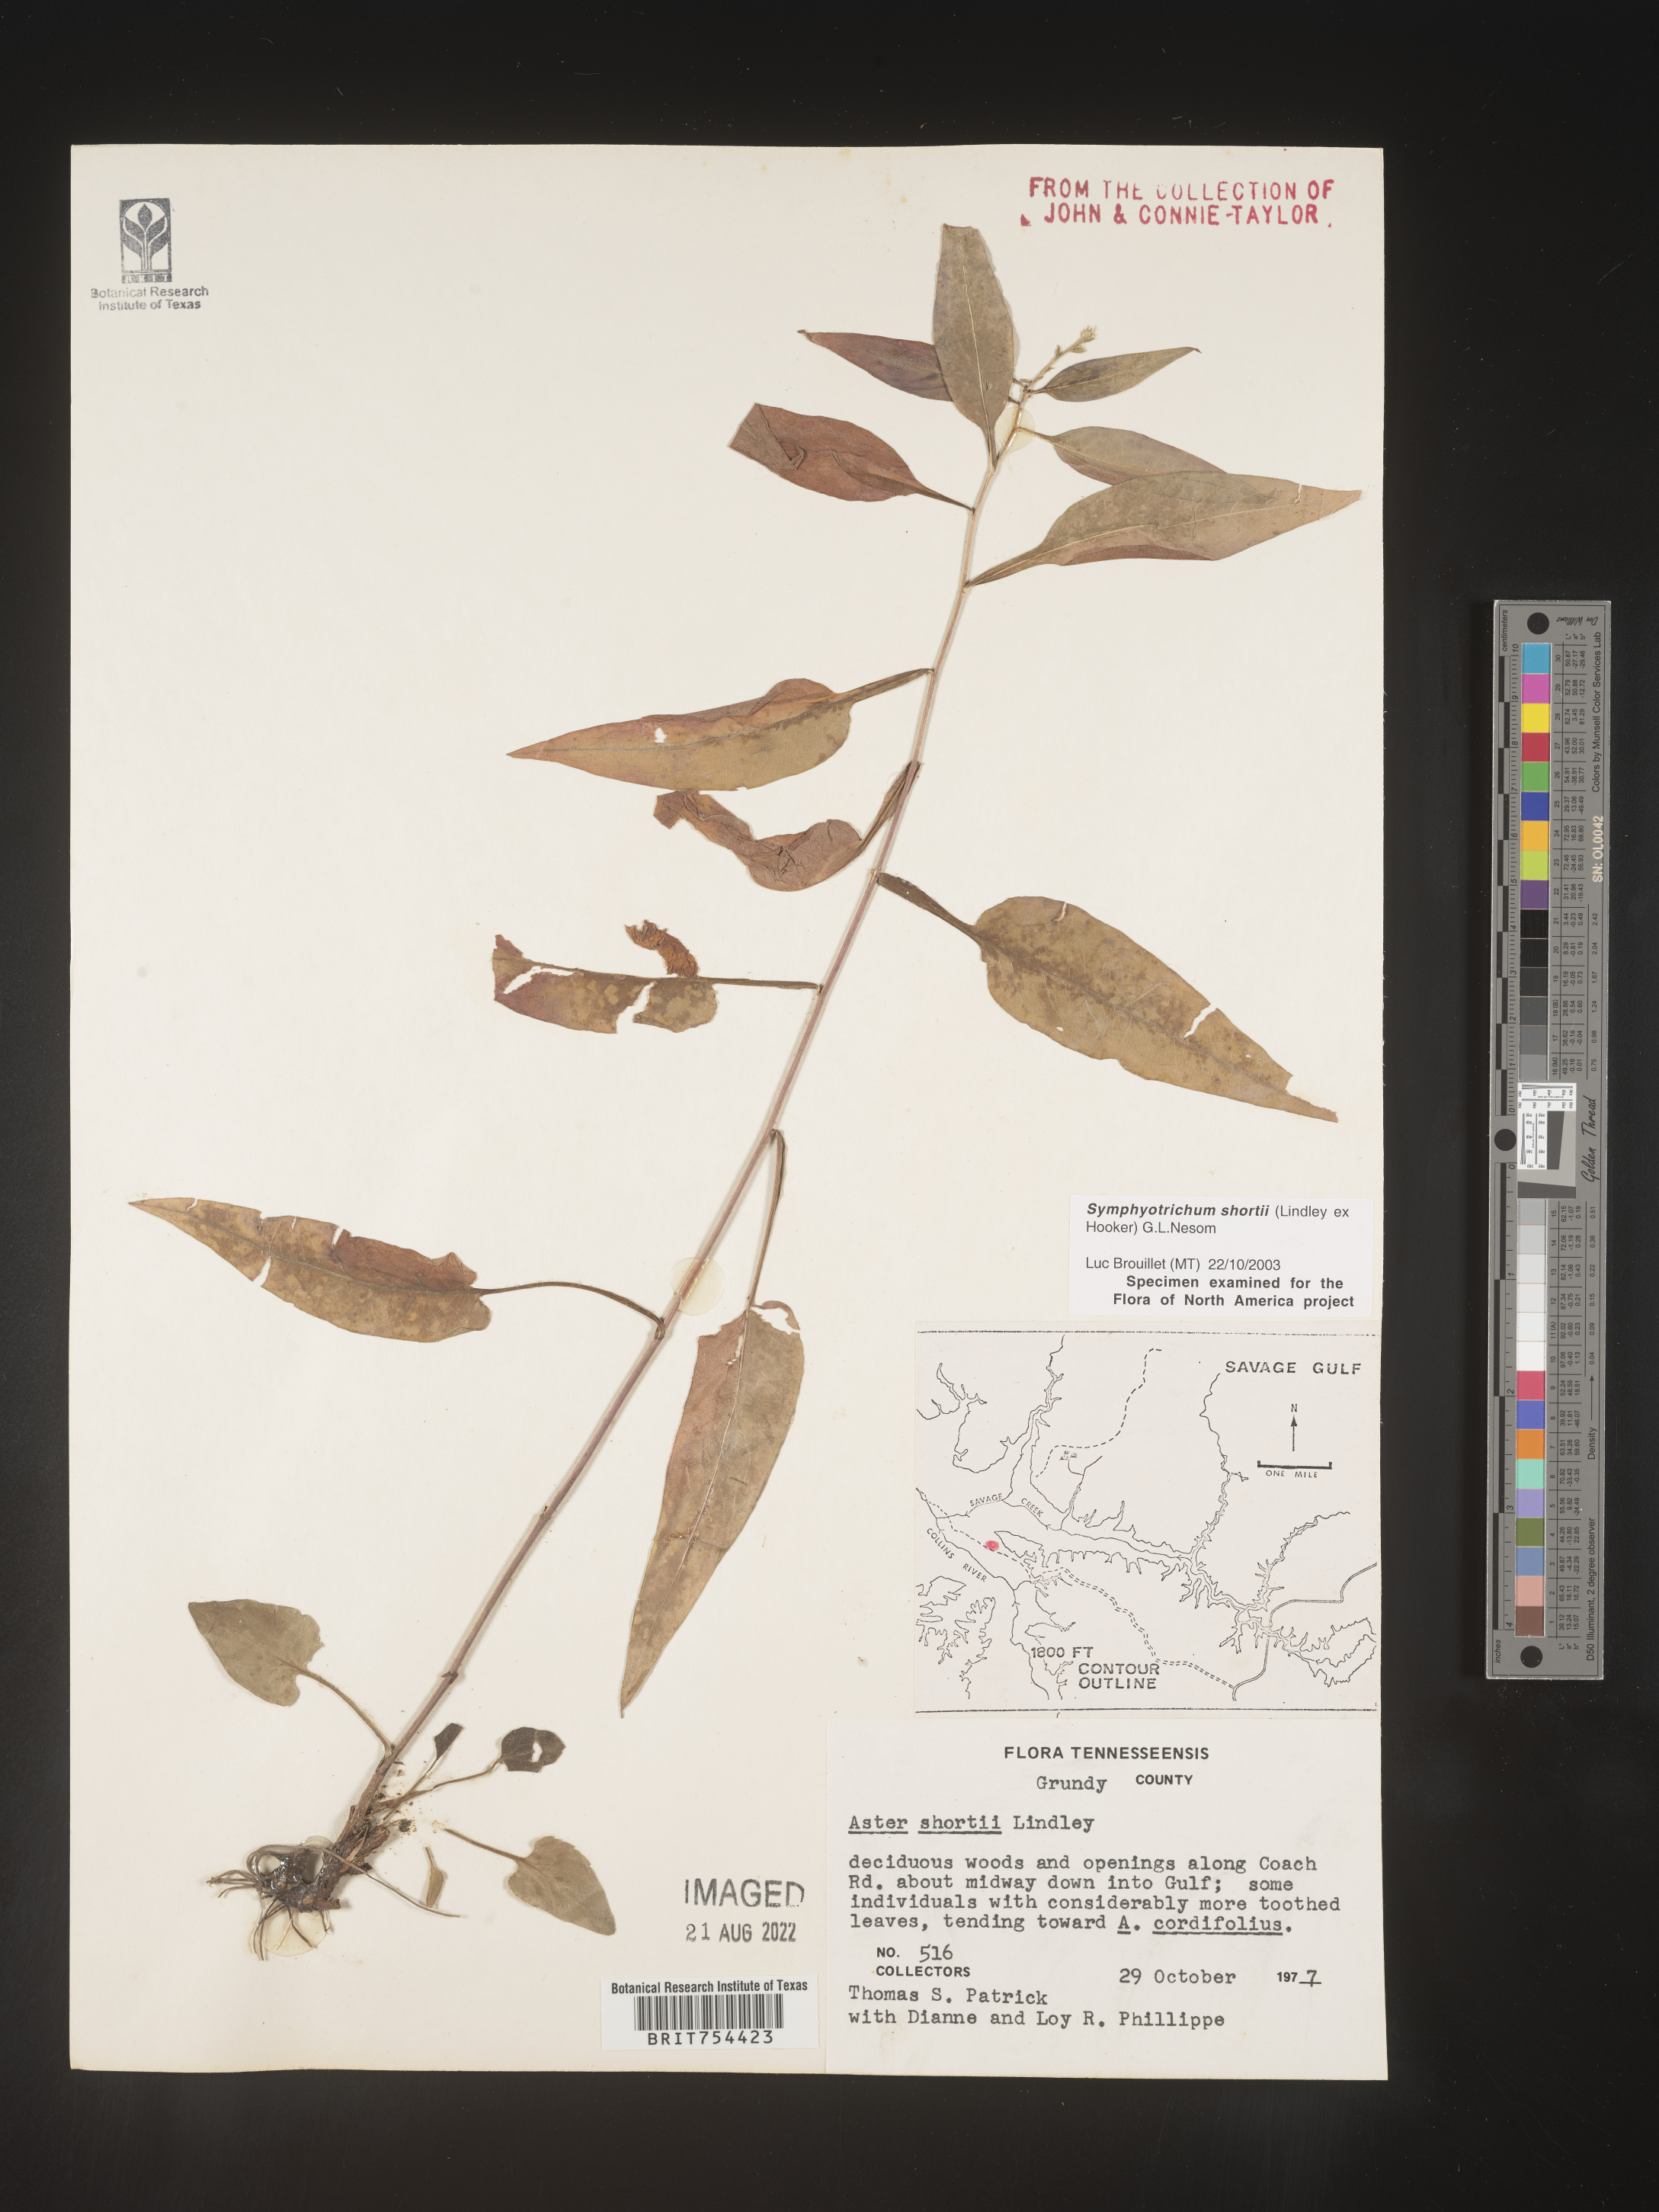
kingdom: Plantae
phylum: Tracheophyta
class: Magnoliopsida
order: Asterales
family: Asteraceae
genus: Symphyotrichum
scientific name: Symphyotrichum shortii
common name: Short's aster
